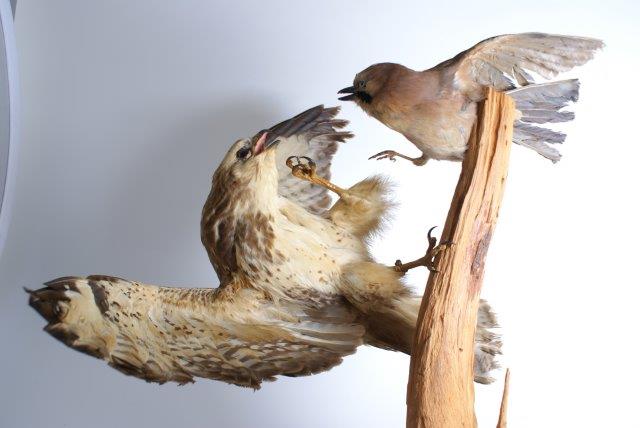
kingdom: Animalia
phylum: Chordata
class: Aves
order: Accipitriformes
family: Accipitridae
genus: Buteo
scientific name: Buteo buteo
